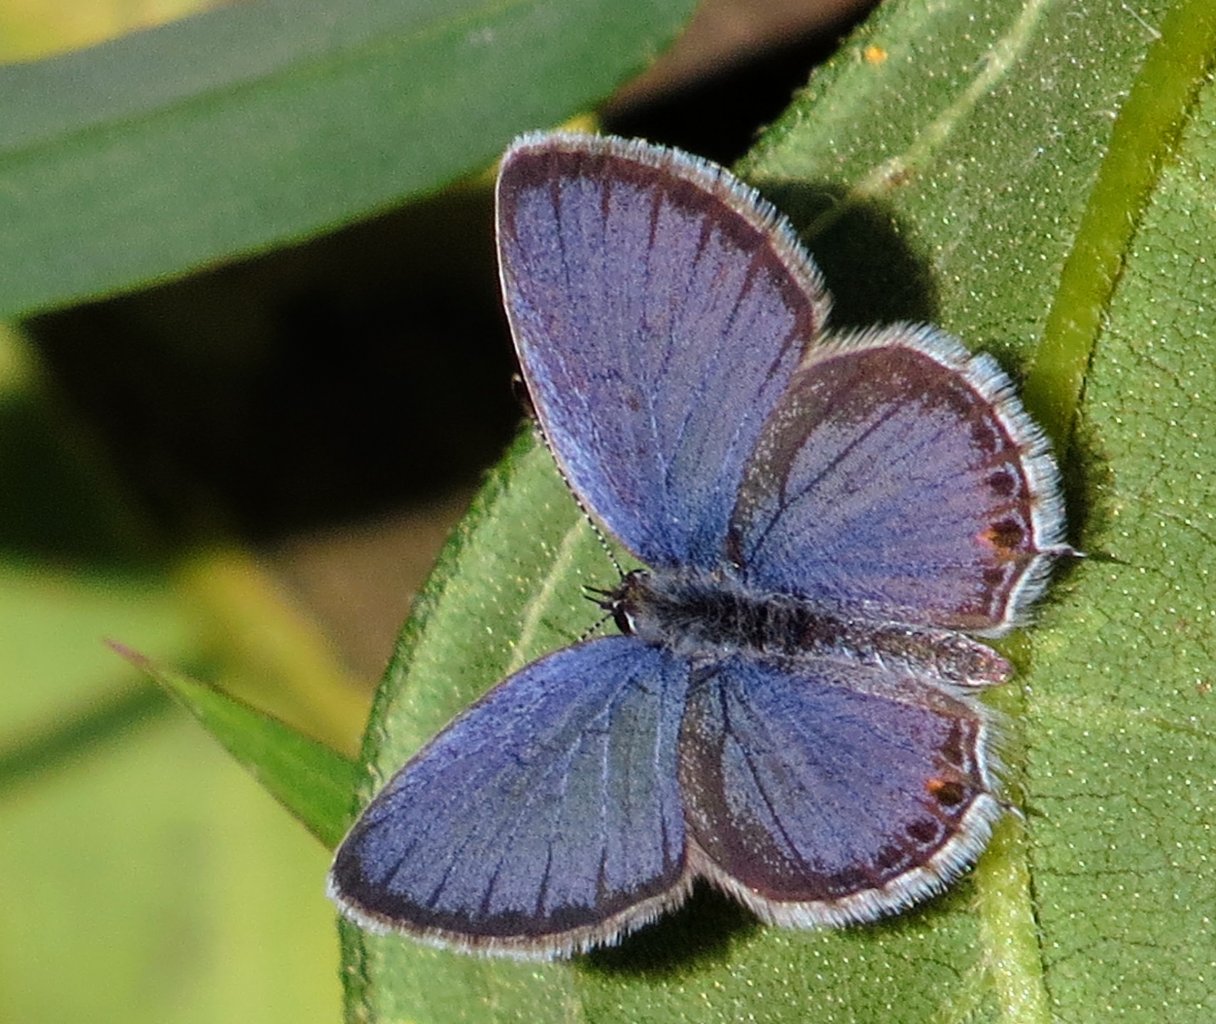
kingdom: Animalia
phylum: Arthropoda
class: Insecta
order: Lepidoptera
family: Lycaenidae
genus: Elkalyce
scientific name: Elkalyce comyntas
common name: Eastern Tailed-Blue
